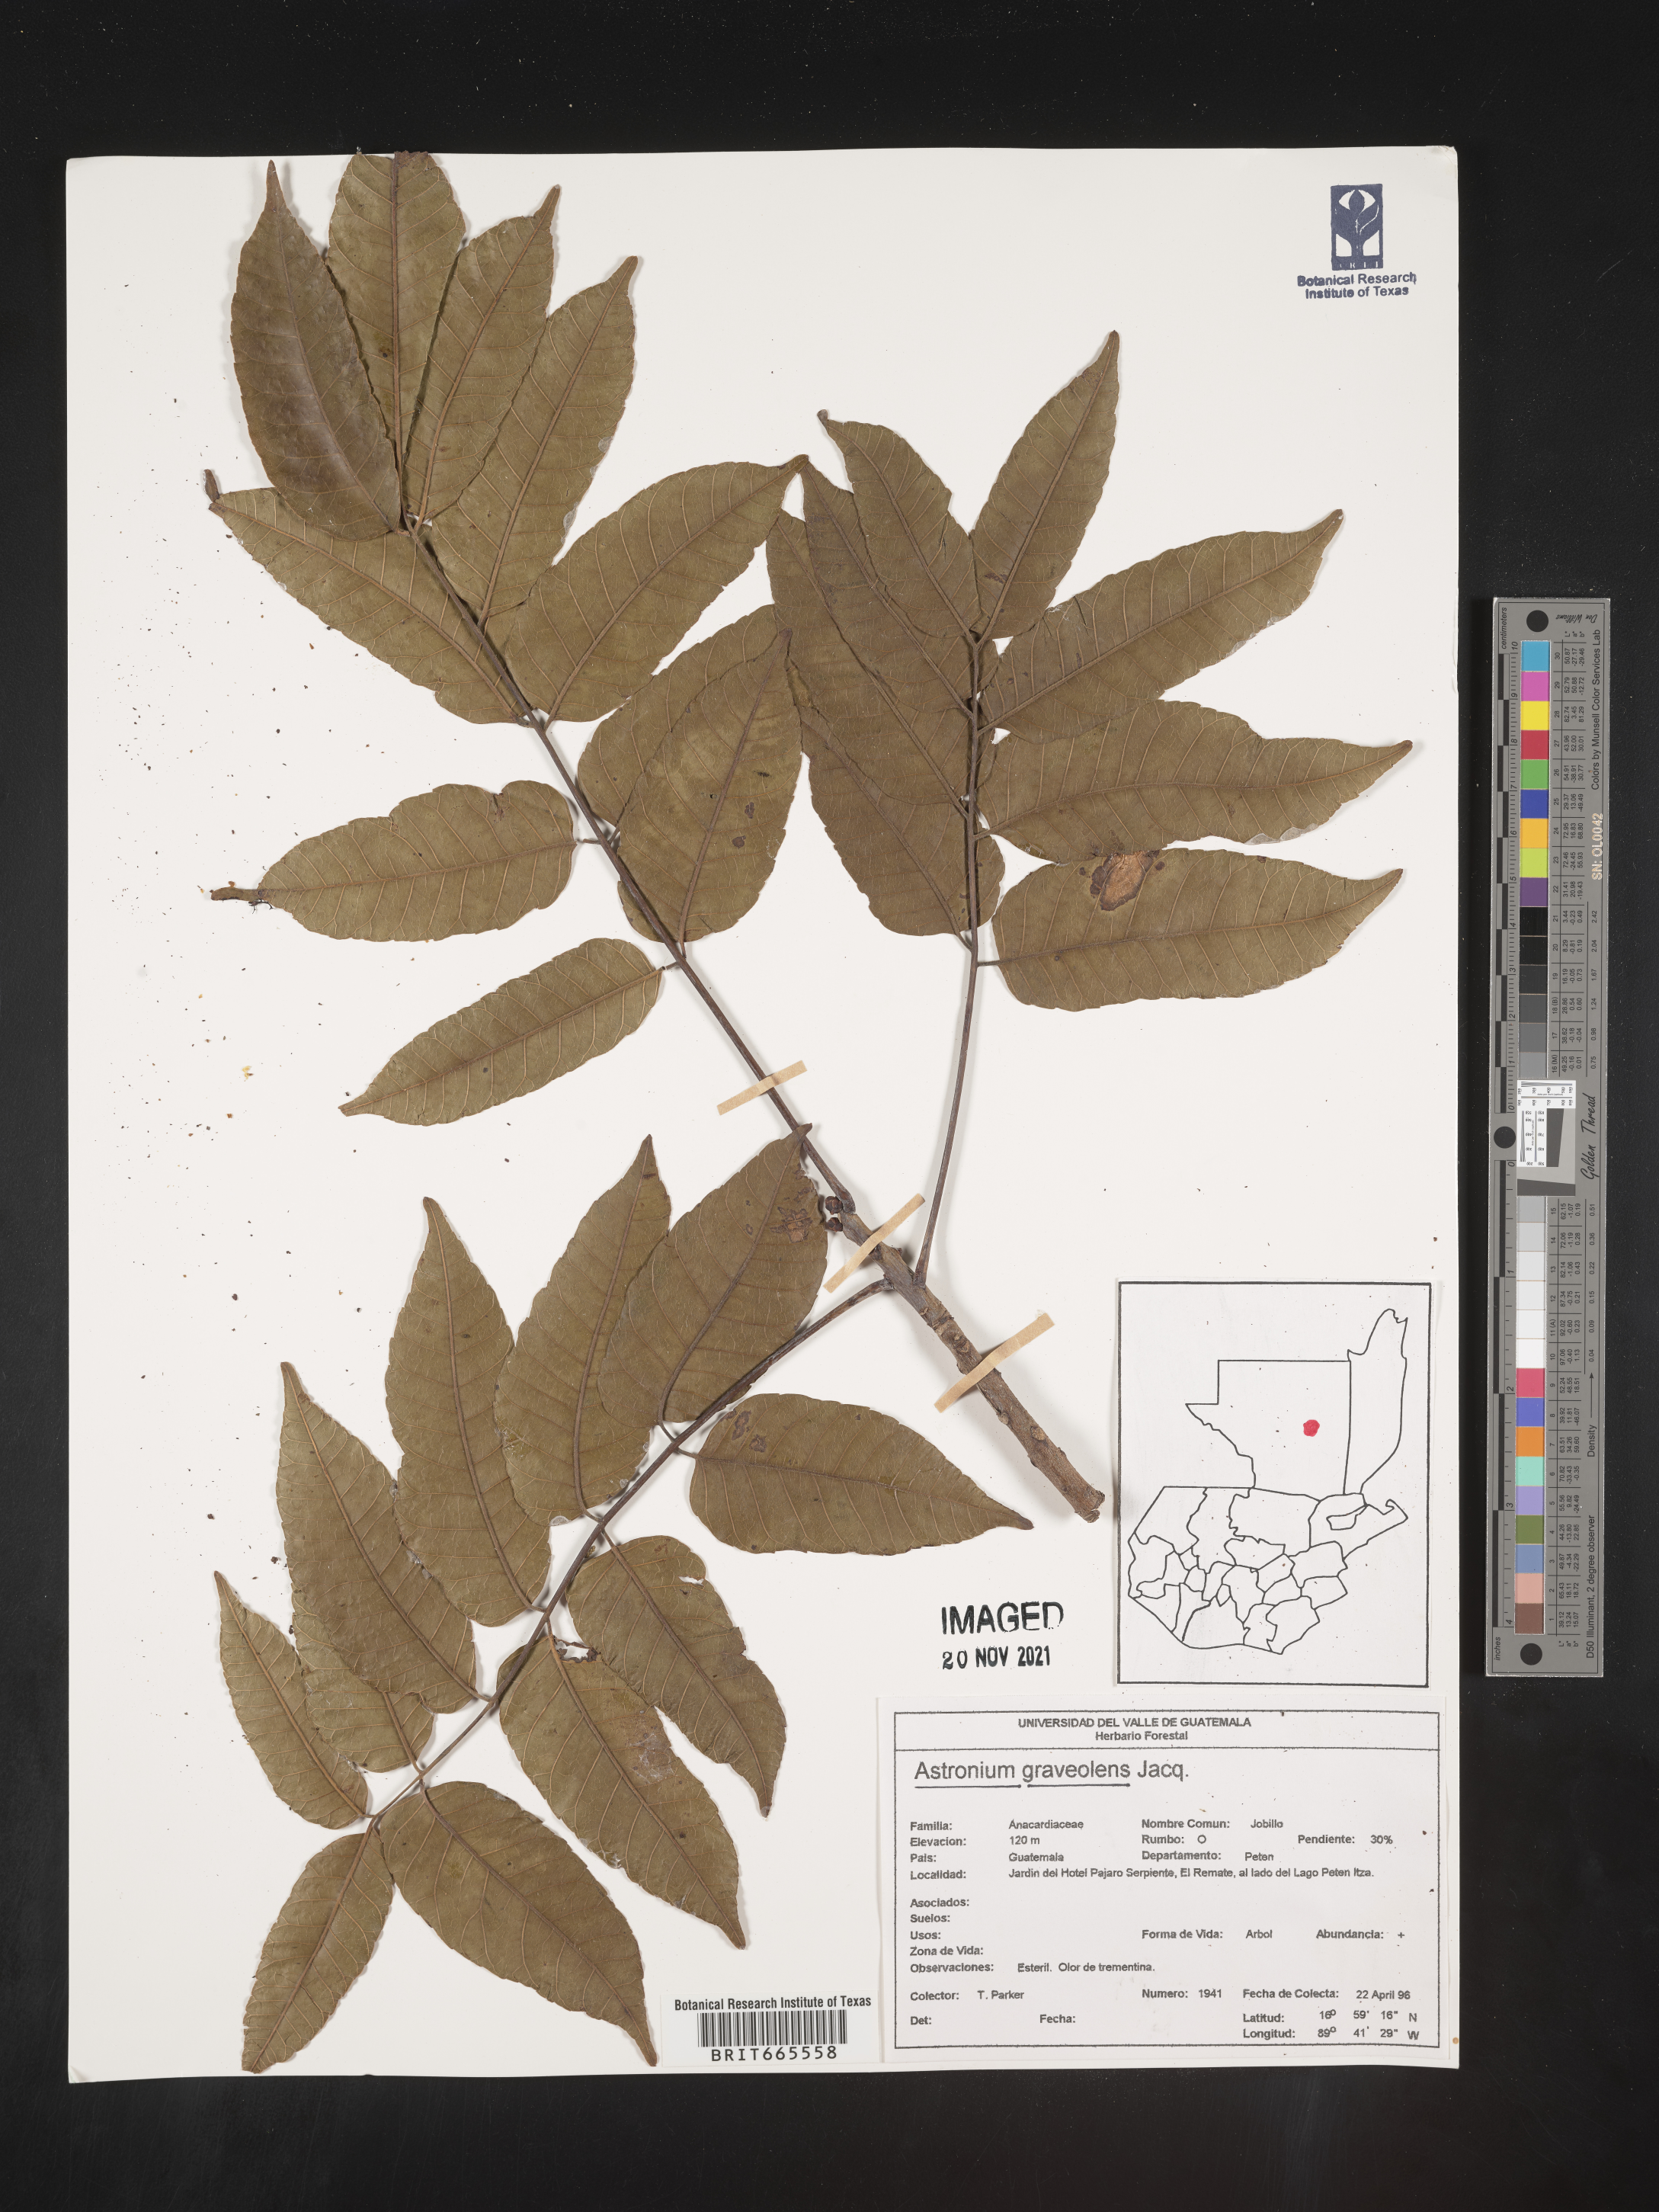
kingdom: Plantae
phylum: Tracheophyta
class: Magnoliopsida
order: Sapindales
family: Anacardiaceae
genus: Astronium
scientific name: Astronium
